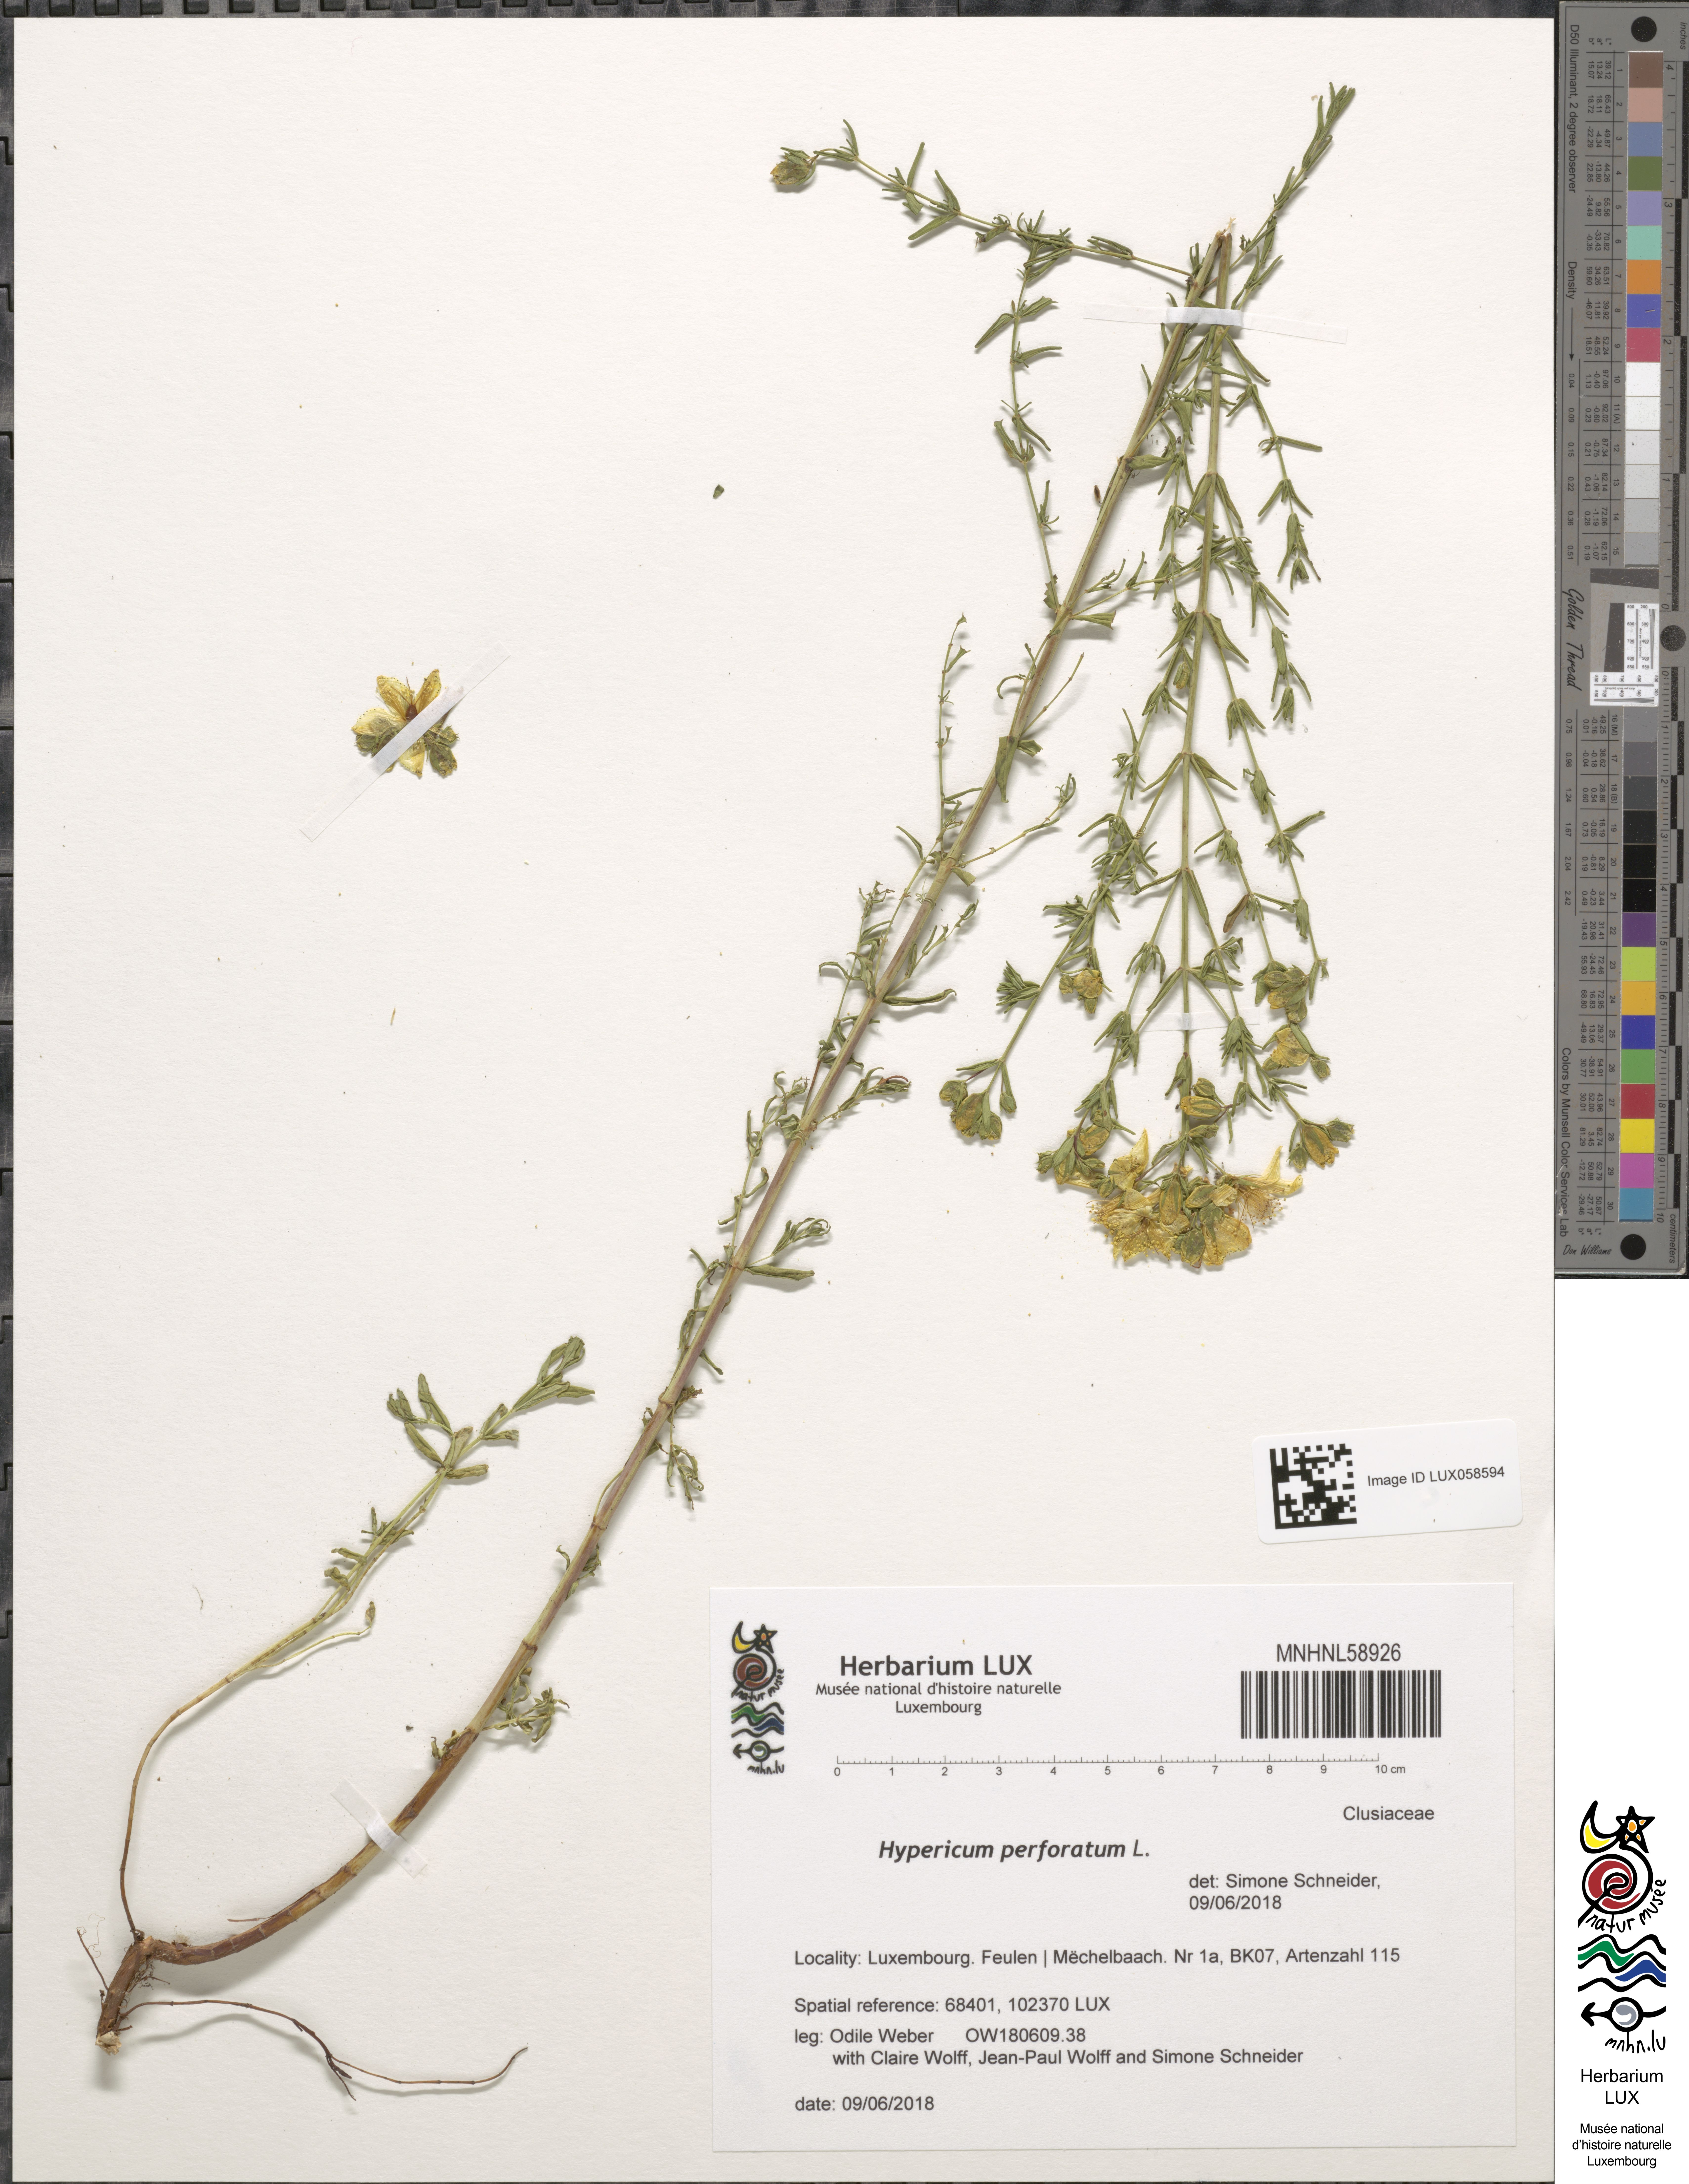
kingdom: Plantae
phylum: Tracheophyta
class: Magnoliopsida
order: Malpighiales
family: Hypericaceae
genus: Hypericum
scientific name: Hypericum perforatum
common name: Common st. johnswort
